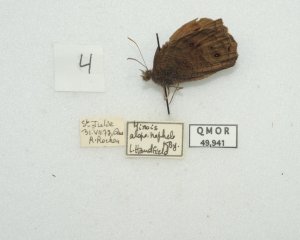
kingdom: Animalia
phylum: Arthropoda
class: Insecta
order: Lepidoptera
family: Nymphalidae
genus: Cercyonis
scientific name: Cercyonis pegala
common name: Common Wood-Nymph
